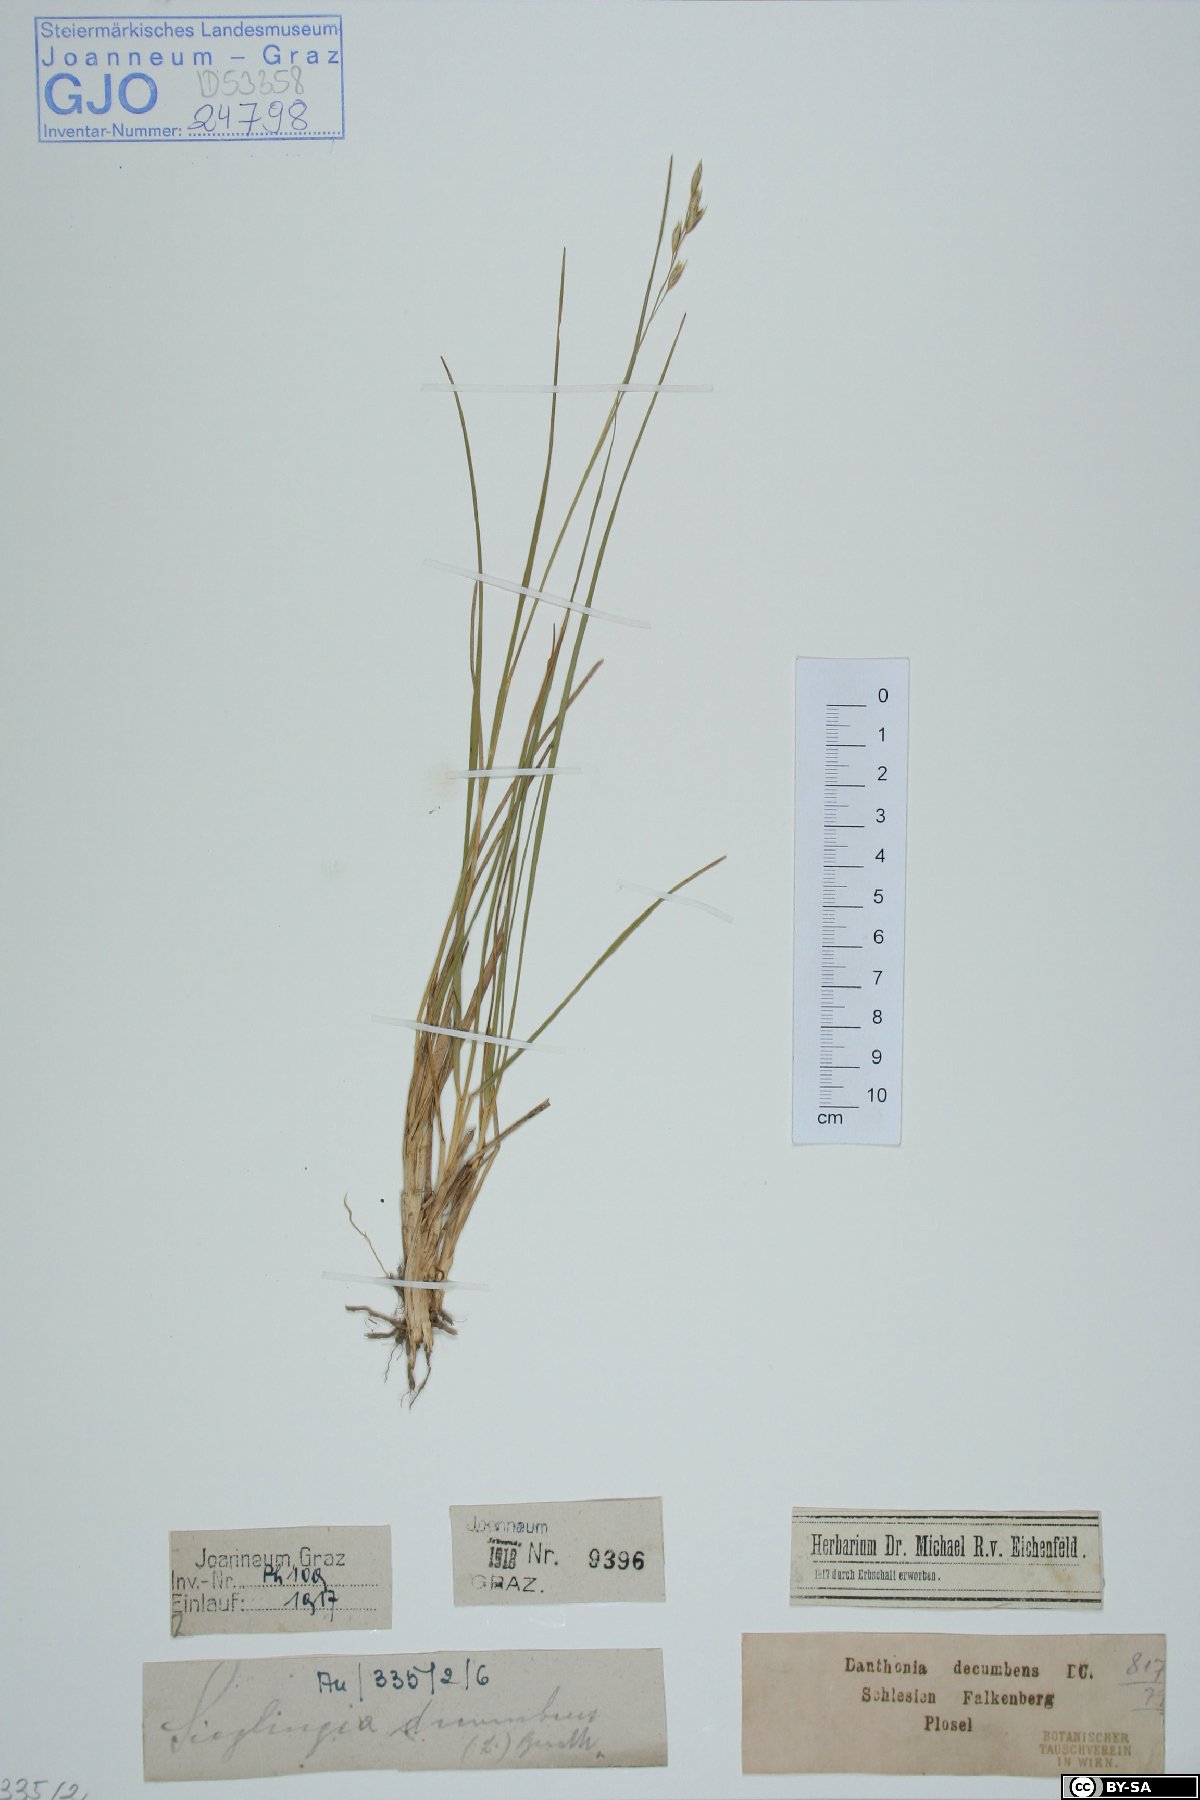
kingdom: Plantae
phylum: Tracheophyta
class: Liliopsida
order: Poales
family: Poaceae
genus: Danthonia
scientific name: Danthonia decumbens
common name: Common heathgrass
